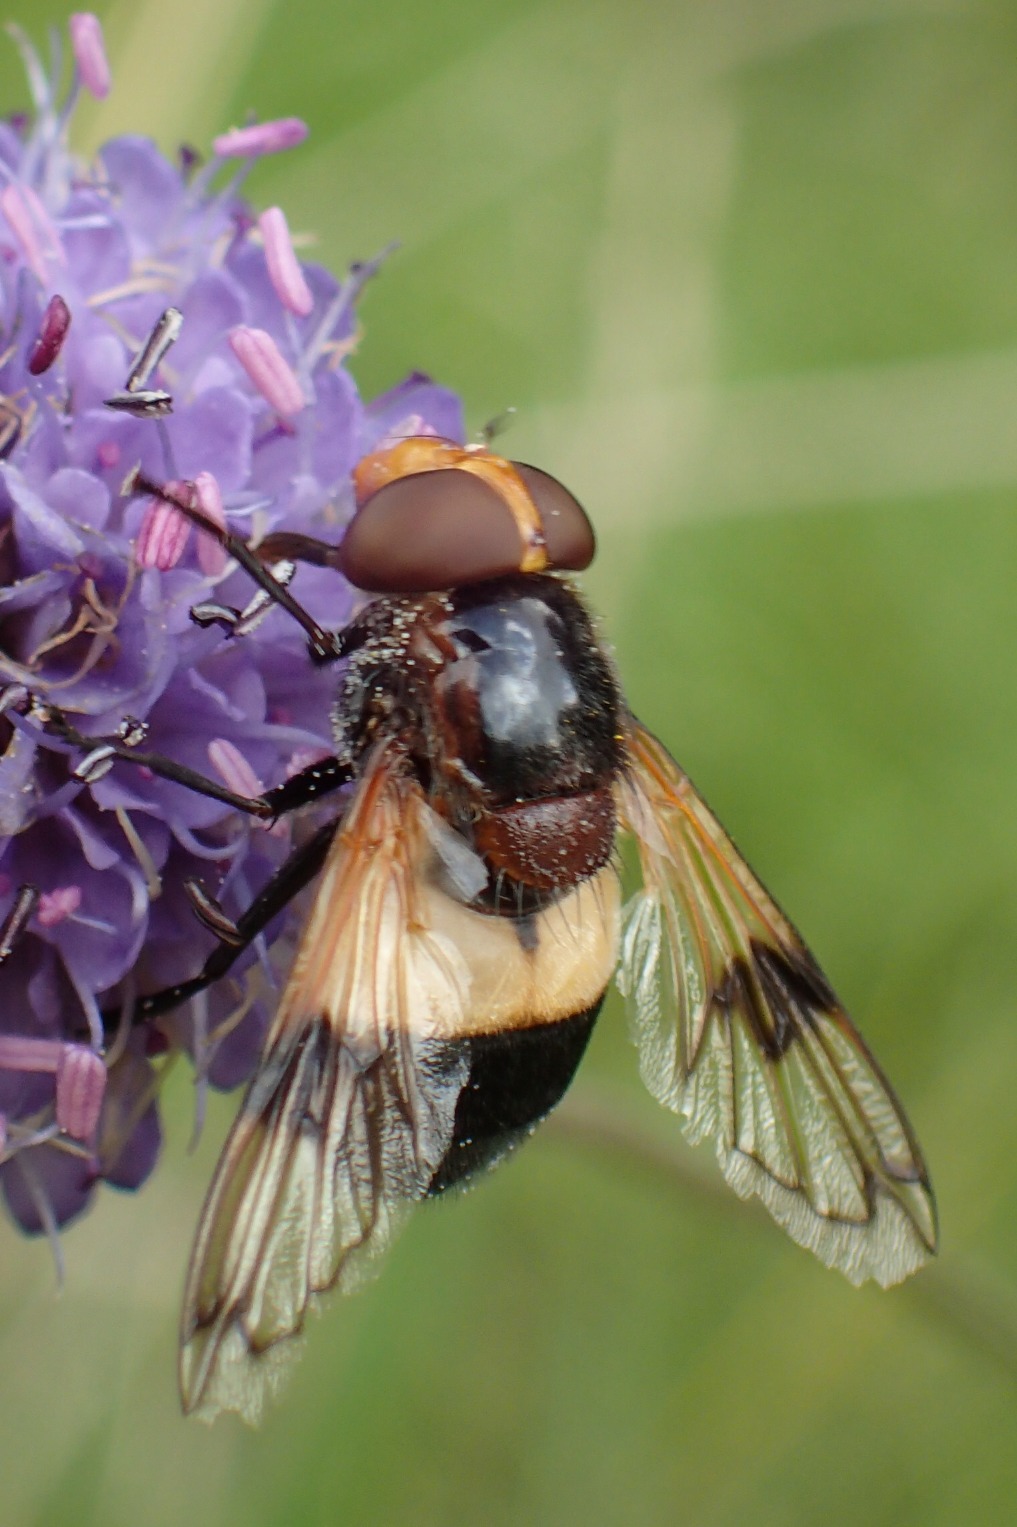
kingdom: Animalia
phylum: Arthropoda
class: Insecta
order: Diptera
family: Syrphidae
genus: Volucella
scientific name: Volucella pellucens
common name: Hvidbåndet humlesvirreflue
